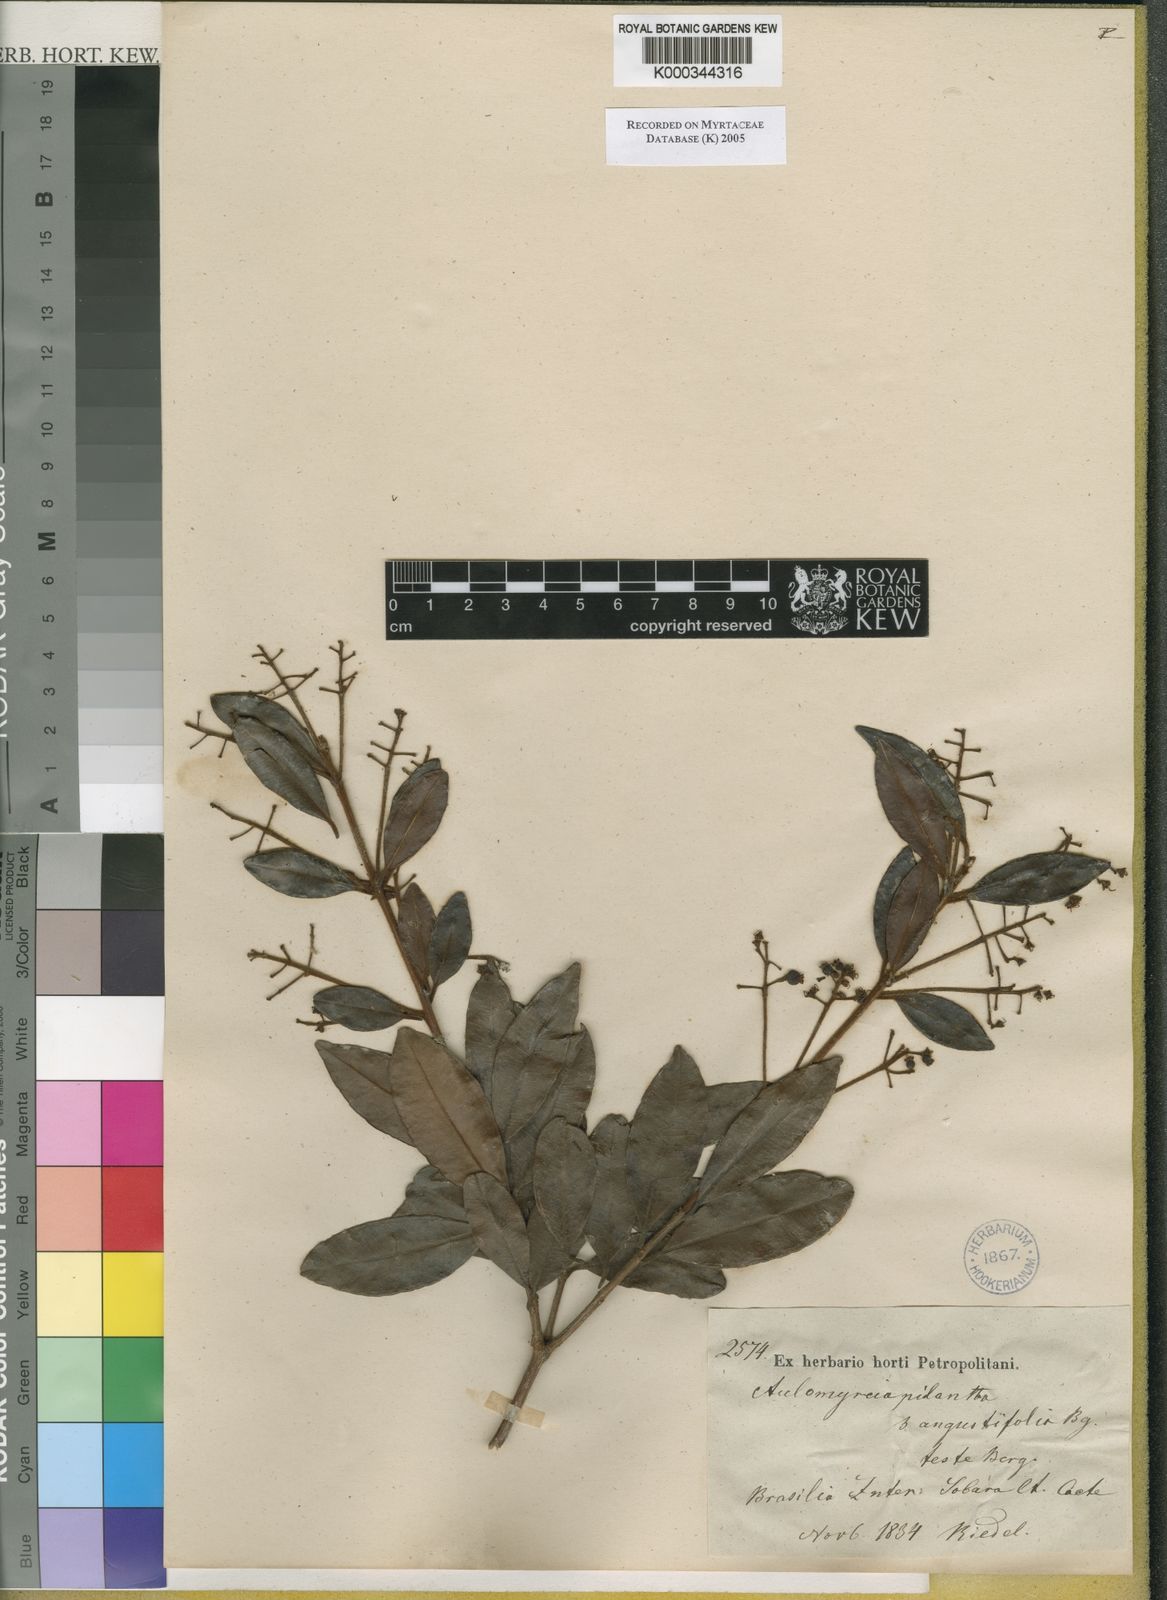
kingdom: Plantae
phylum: Tracheophyta
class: Magnoliopsida
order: Myrtales
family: Myrtaceae
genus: Myrcia
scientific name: Myrcia rufipes
